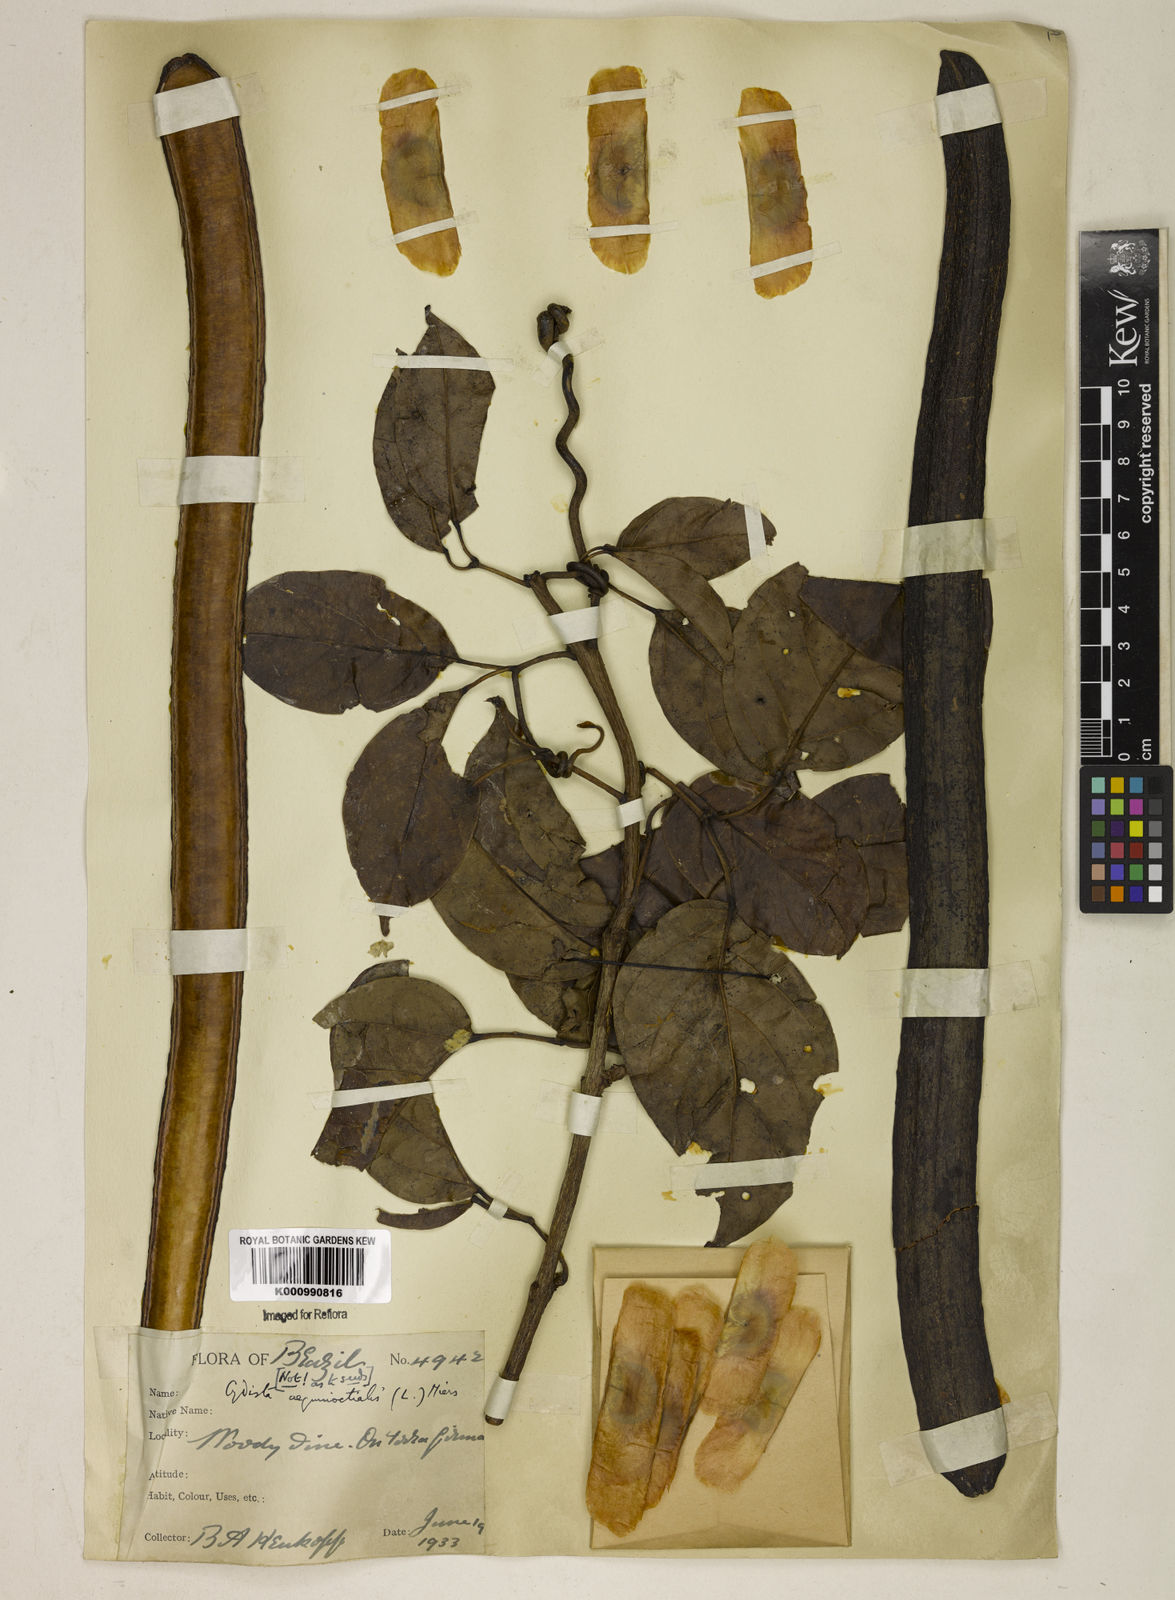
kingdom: Plantae
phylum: Tracheophyta
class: Magnoliopsida
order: Lamiales
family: Bignoniaceae
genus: Bignonia
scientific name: Bignonia aequinoctialis
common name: Garlicvine
